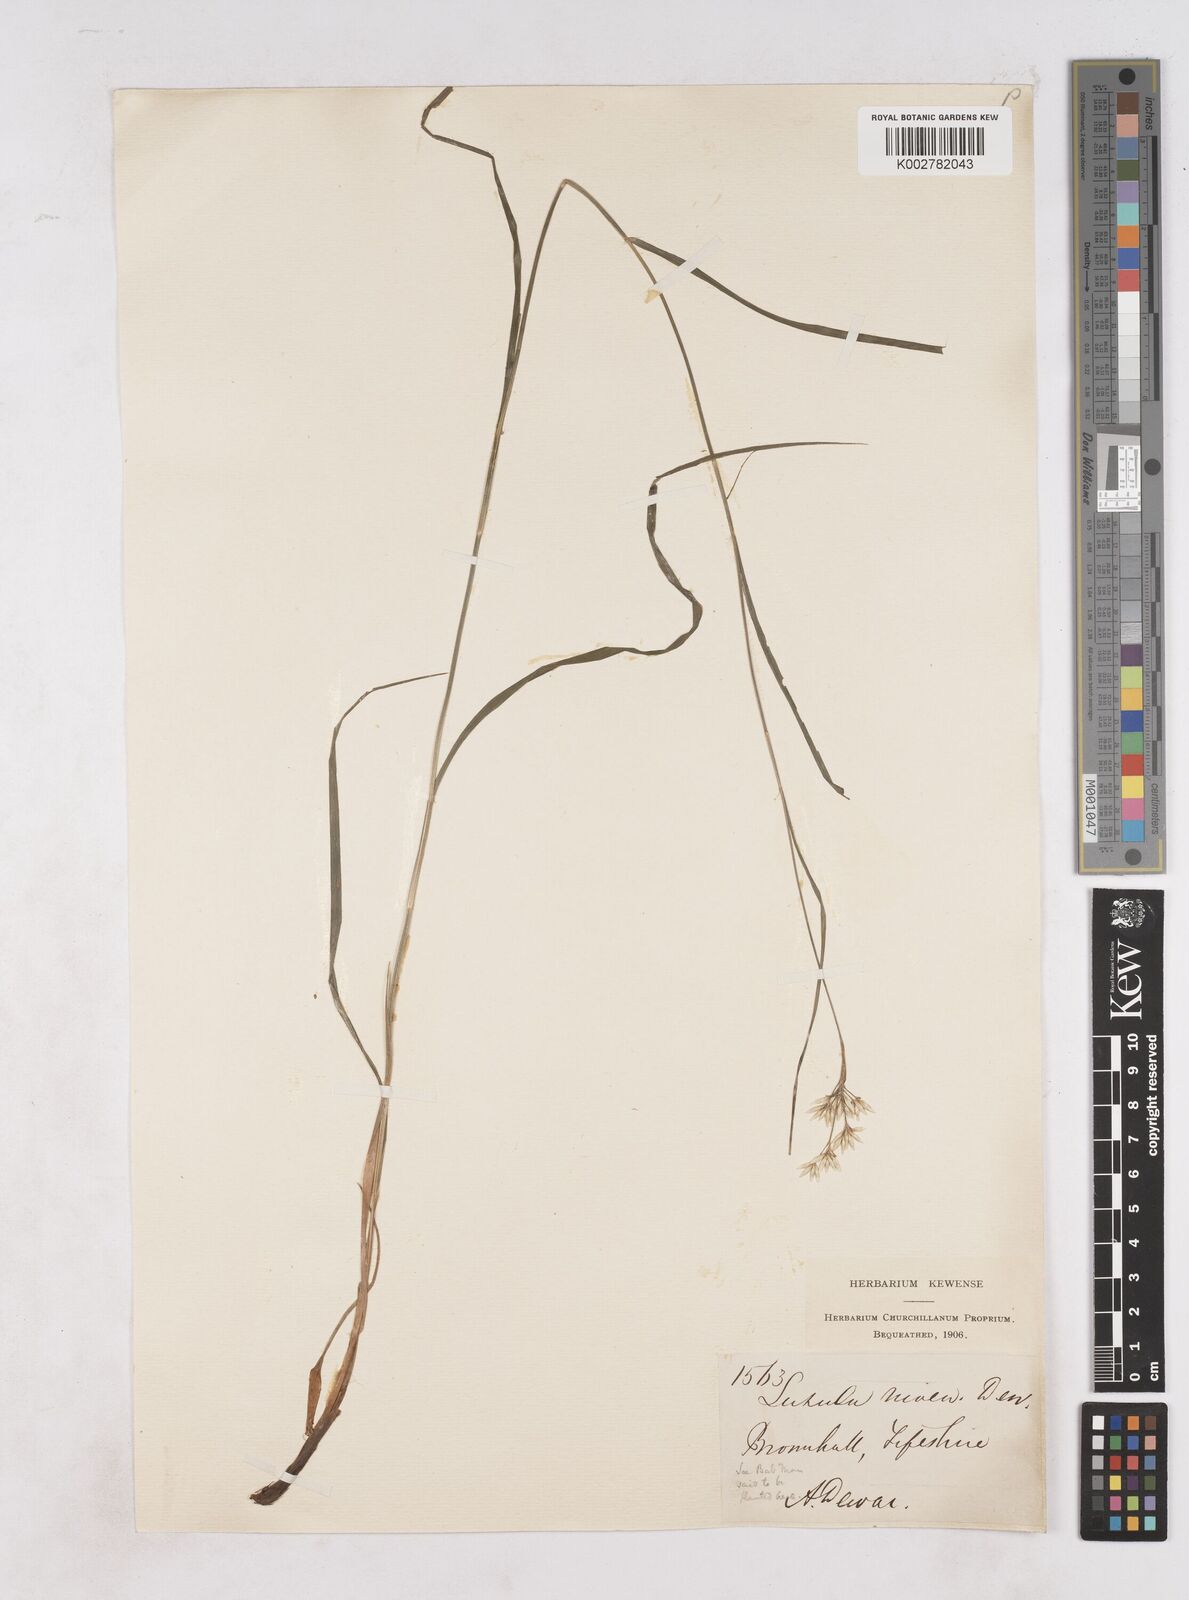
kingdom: Plantae
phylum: Tracheophyta
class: Liliopsida
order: Poales
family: Juncaceae
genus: Luzula
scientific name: Luzula nivea
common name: Snow-white wood-rush
